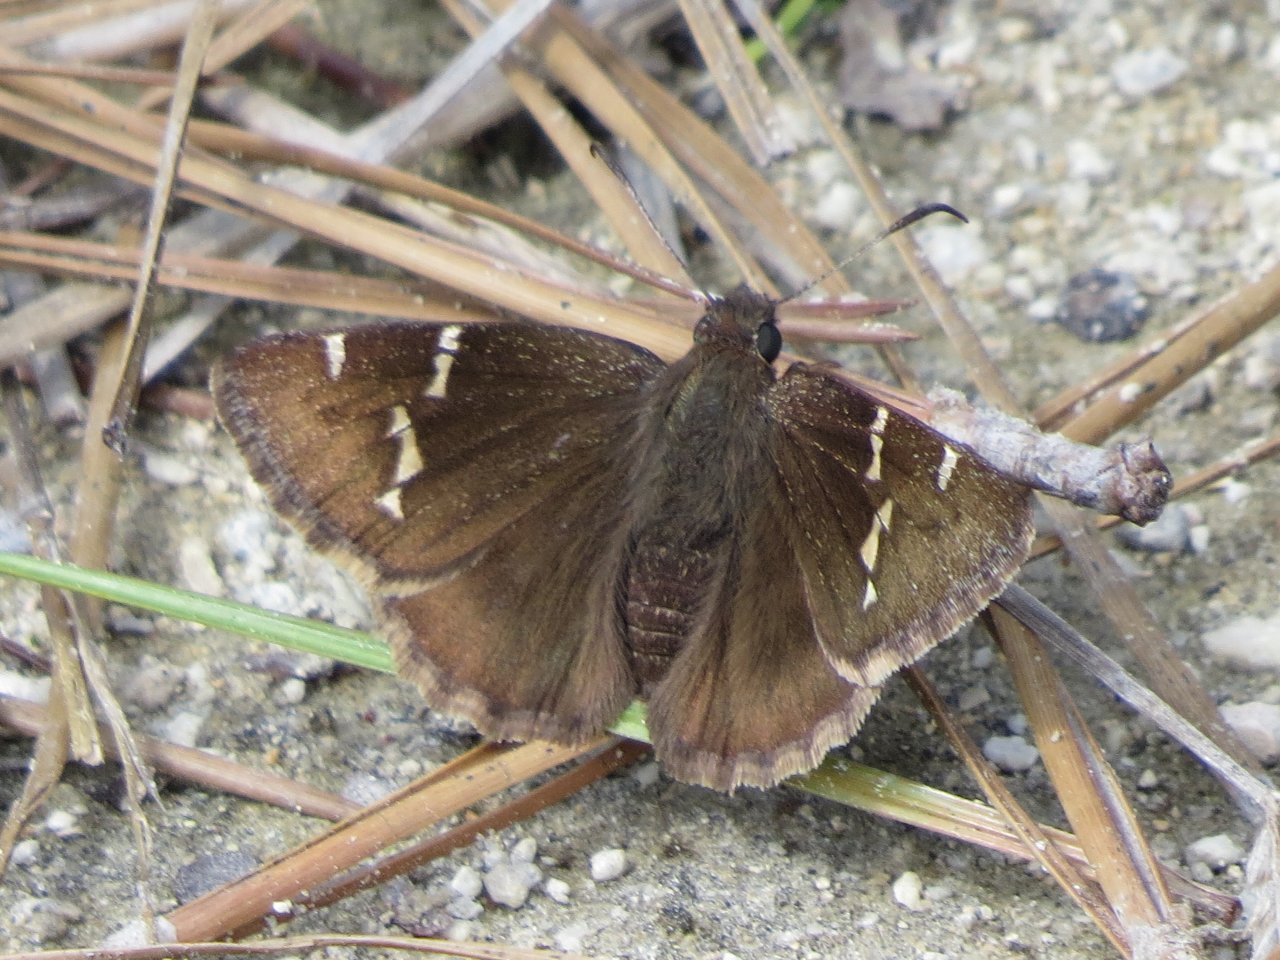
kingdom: Animalia
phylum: Arthropoda
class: Insecta
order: Lepidoptera
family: Hesperiidae
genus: Autochton
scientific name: Autochton
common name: Northern Cloudywing
